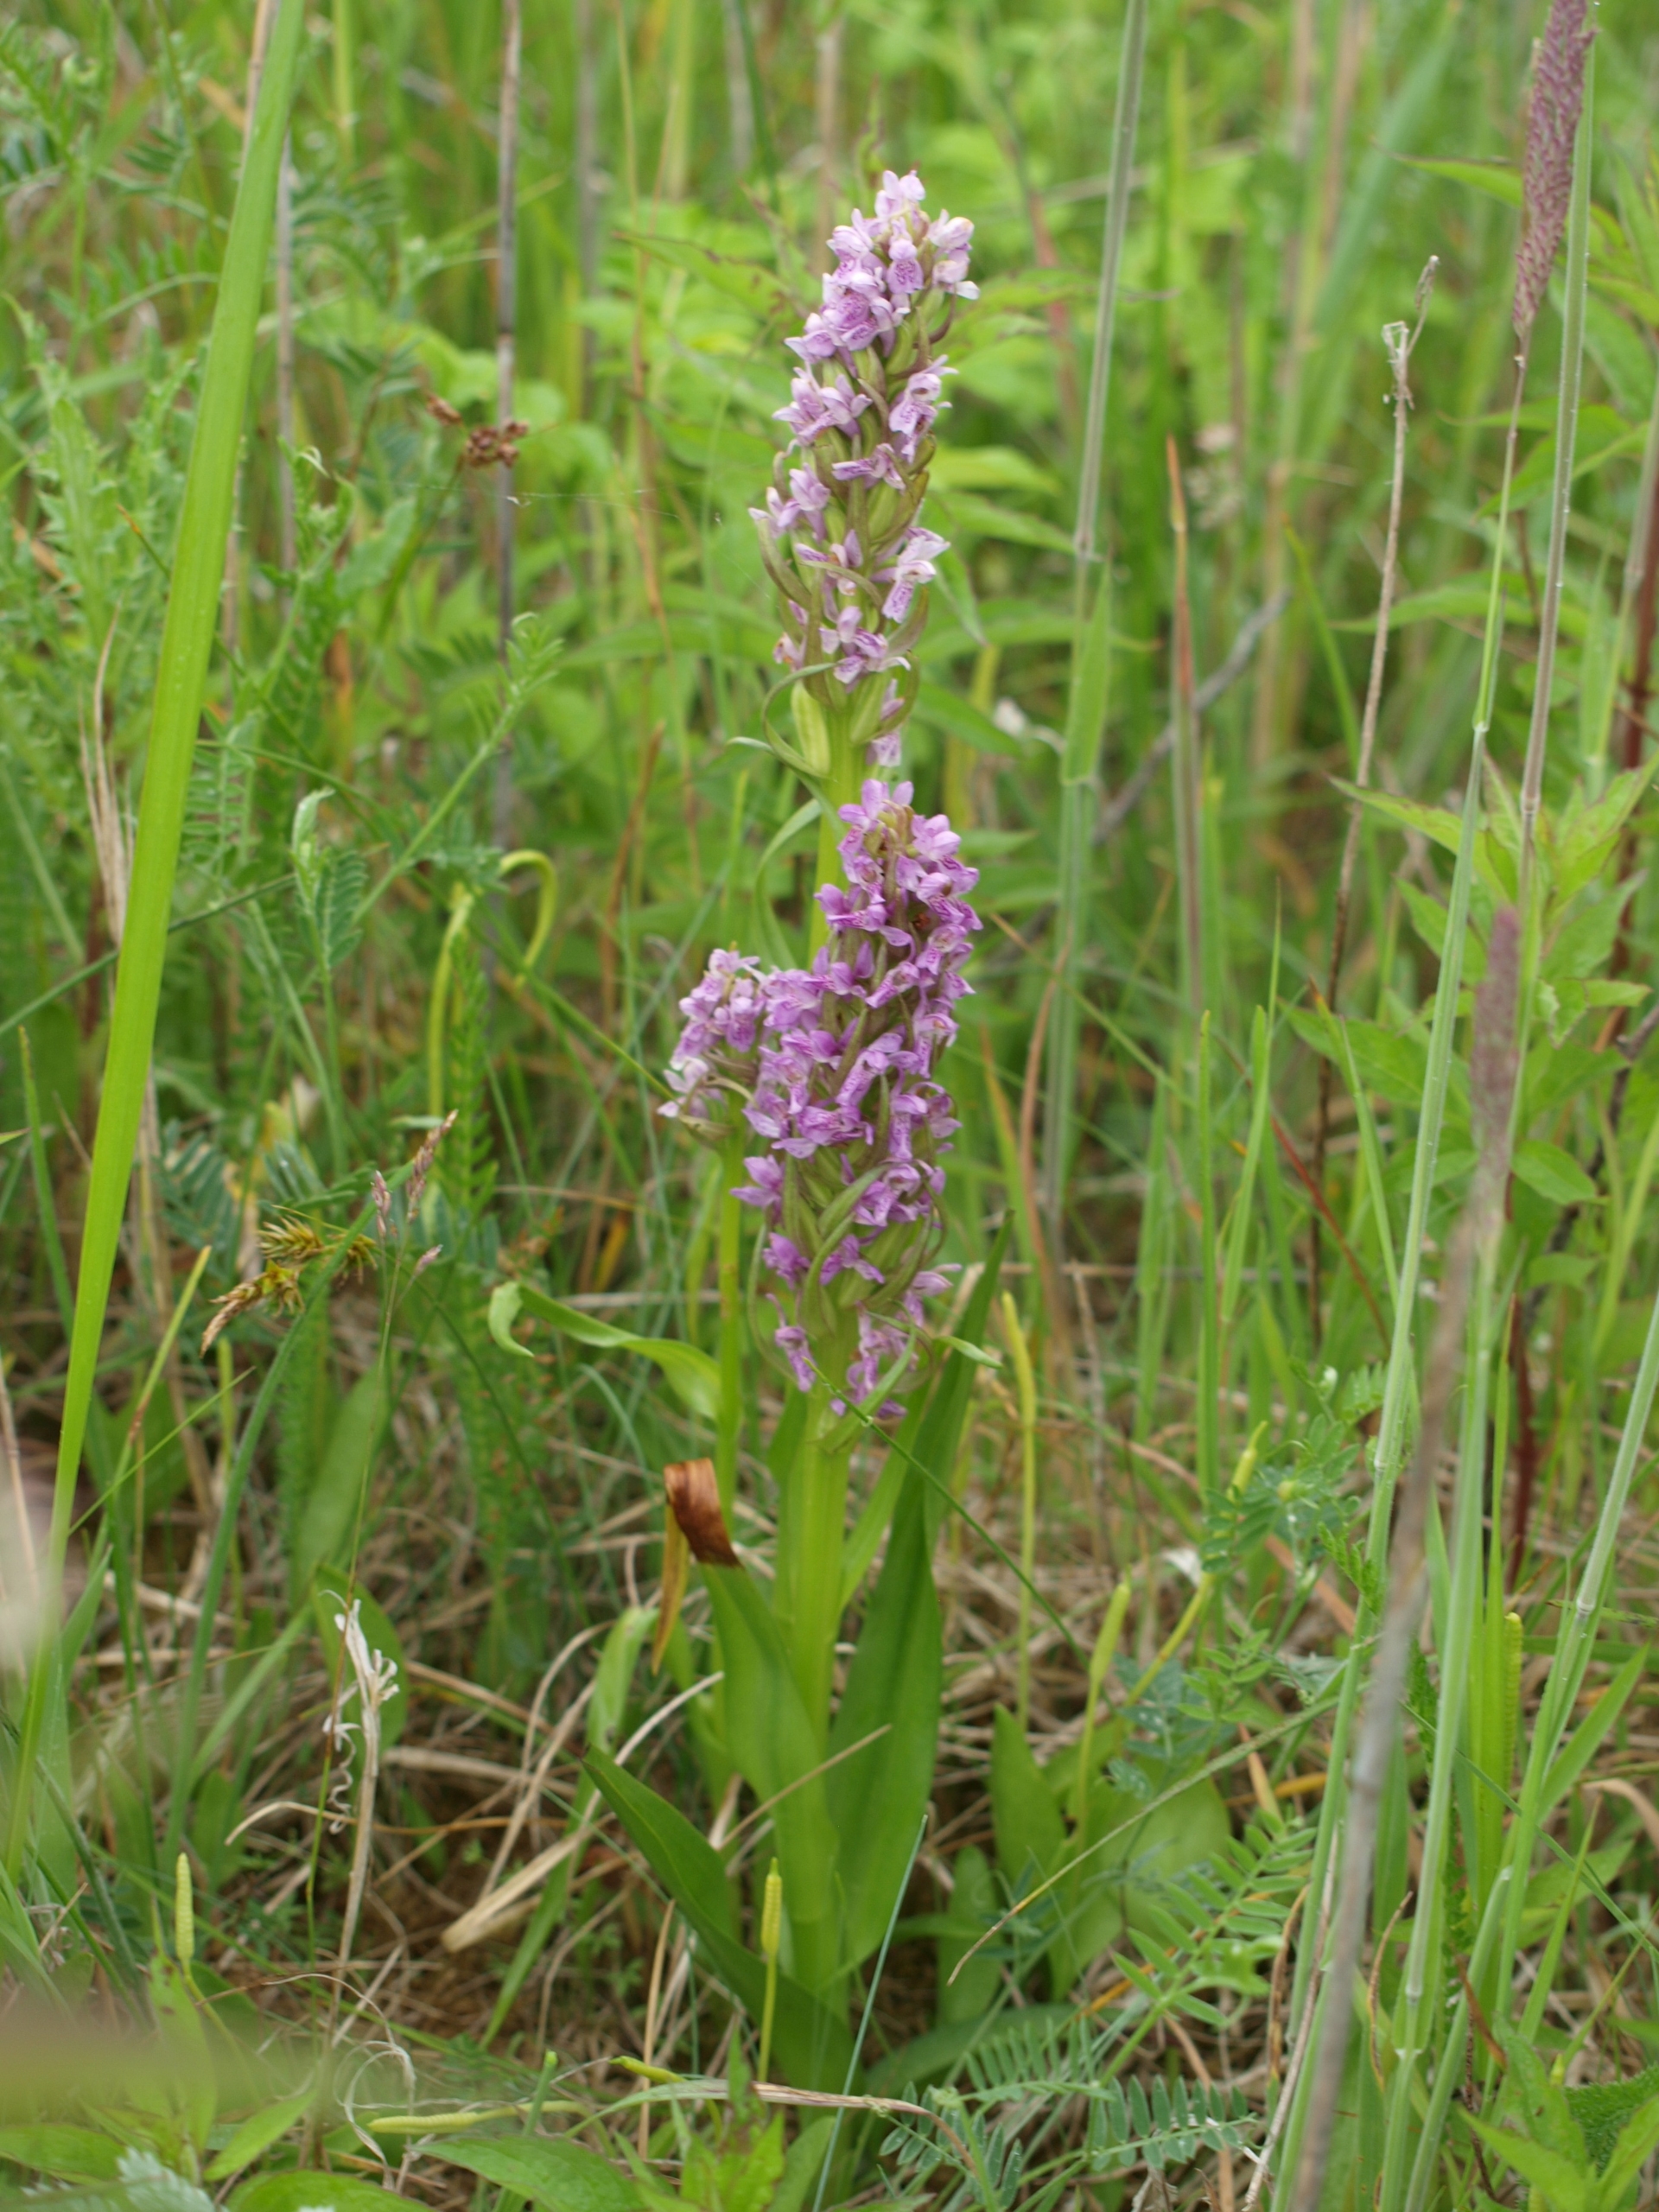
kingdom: Plantae
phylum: Tracheophyta
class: Liliopsida
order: Asparagales
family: Orchidaceae
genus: Dactylorhiza
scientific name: Dactylorhiza incarnata
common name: Kødfarvet gøgeurt
